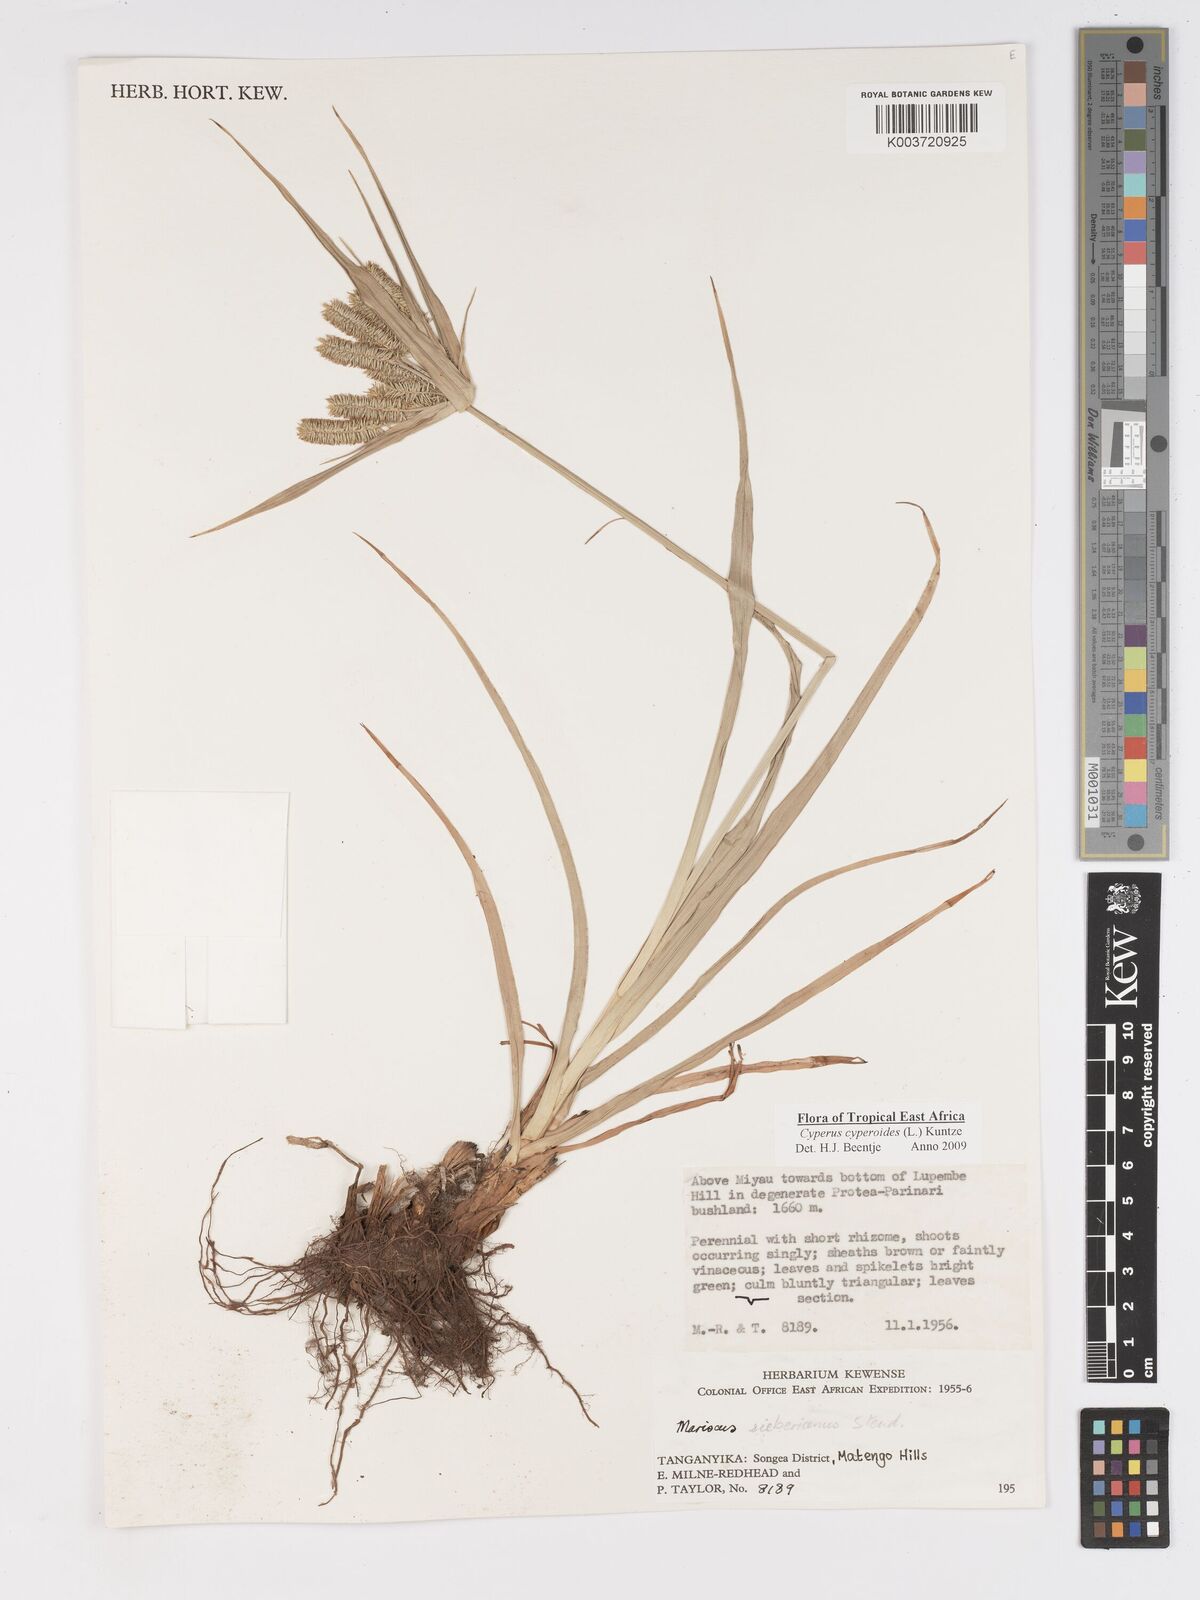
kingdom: Plantae
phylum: Tracheophyta
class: Liliopsida
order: Poales
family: Cyperaceae
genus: Cyperus
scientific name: Cyperus cyperoides
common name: Pacific island flat sedge
